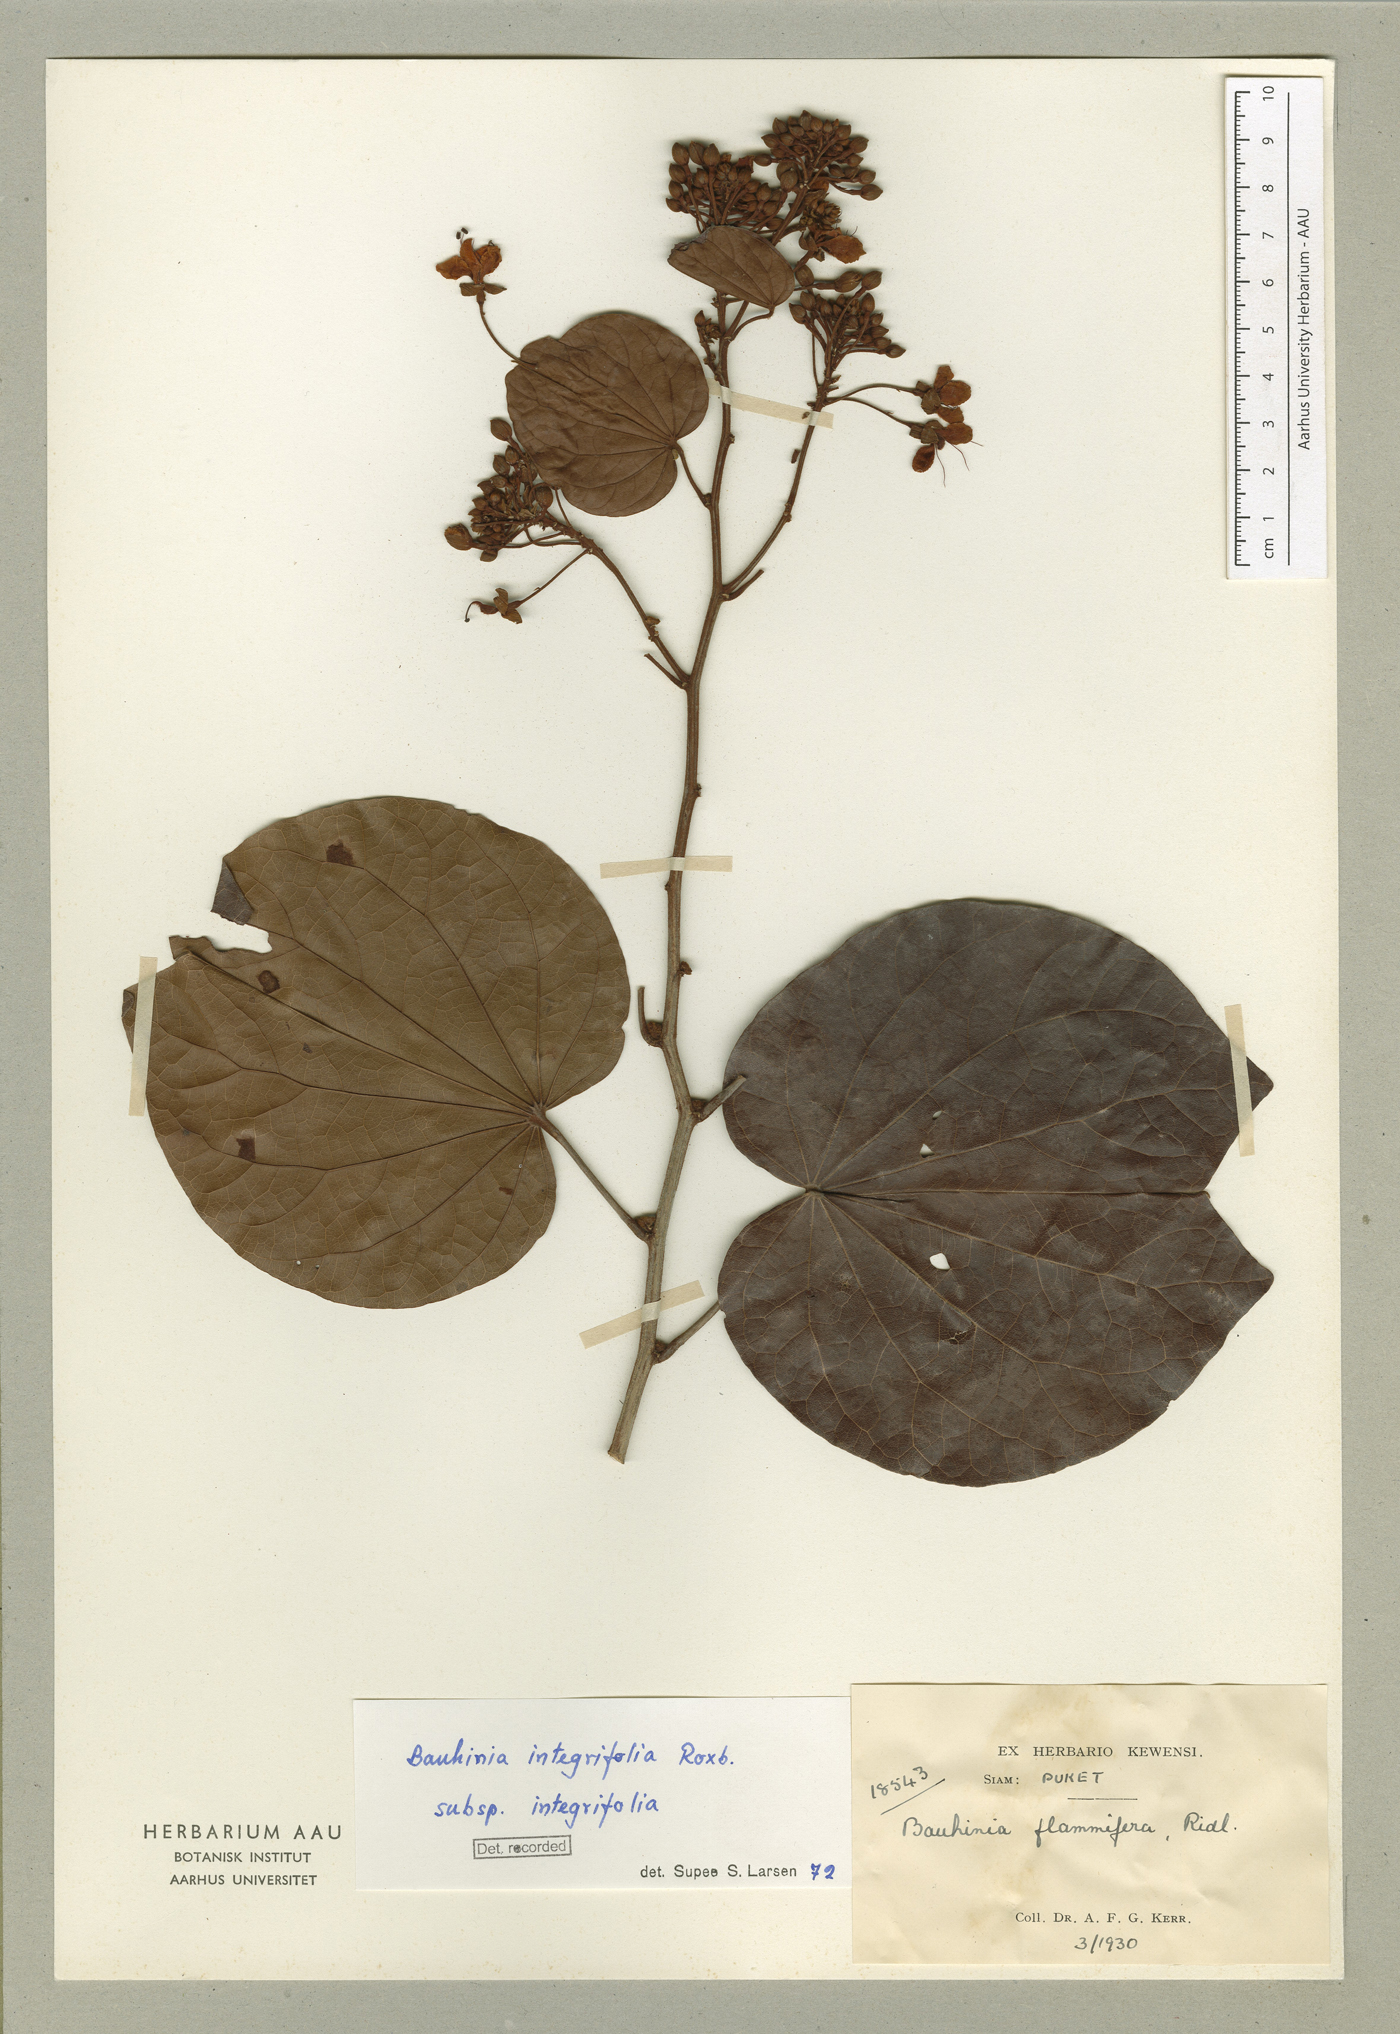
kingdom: Plantae
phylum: Tracheophyta
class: Magnoliopsida
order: Fabales
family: Fabaceae
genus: Phanera
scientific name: Phanera integrifolia
